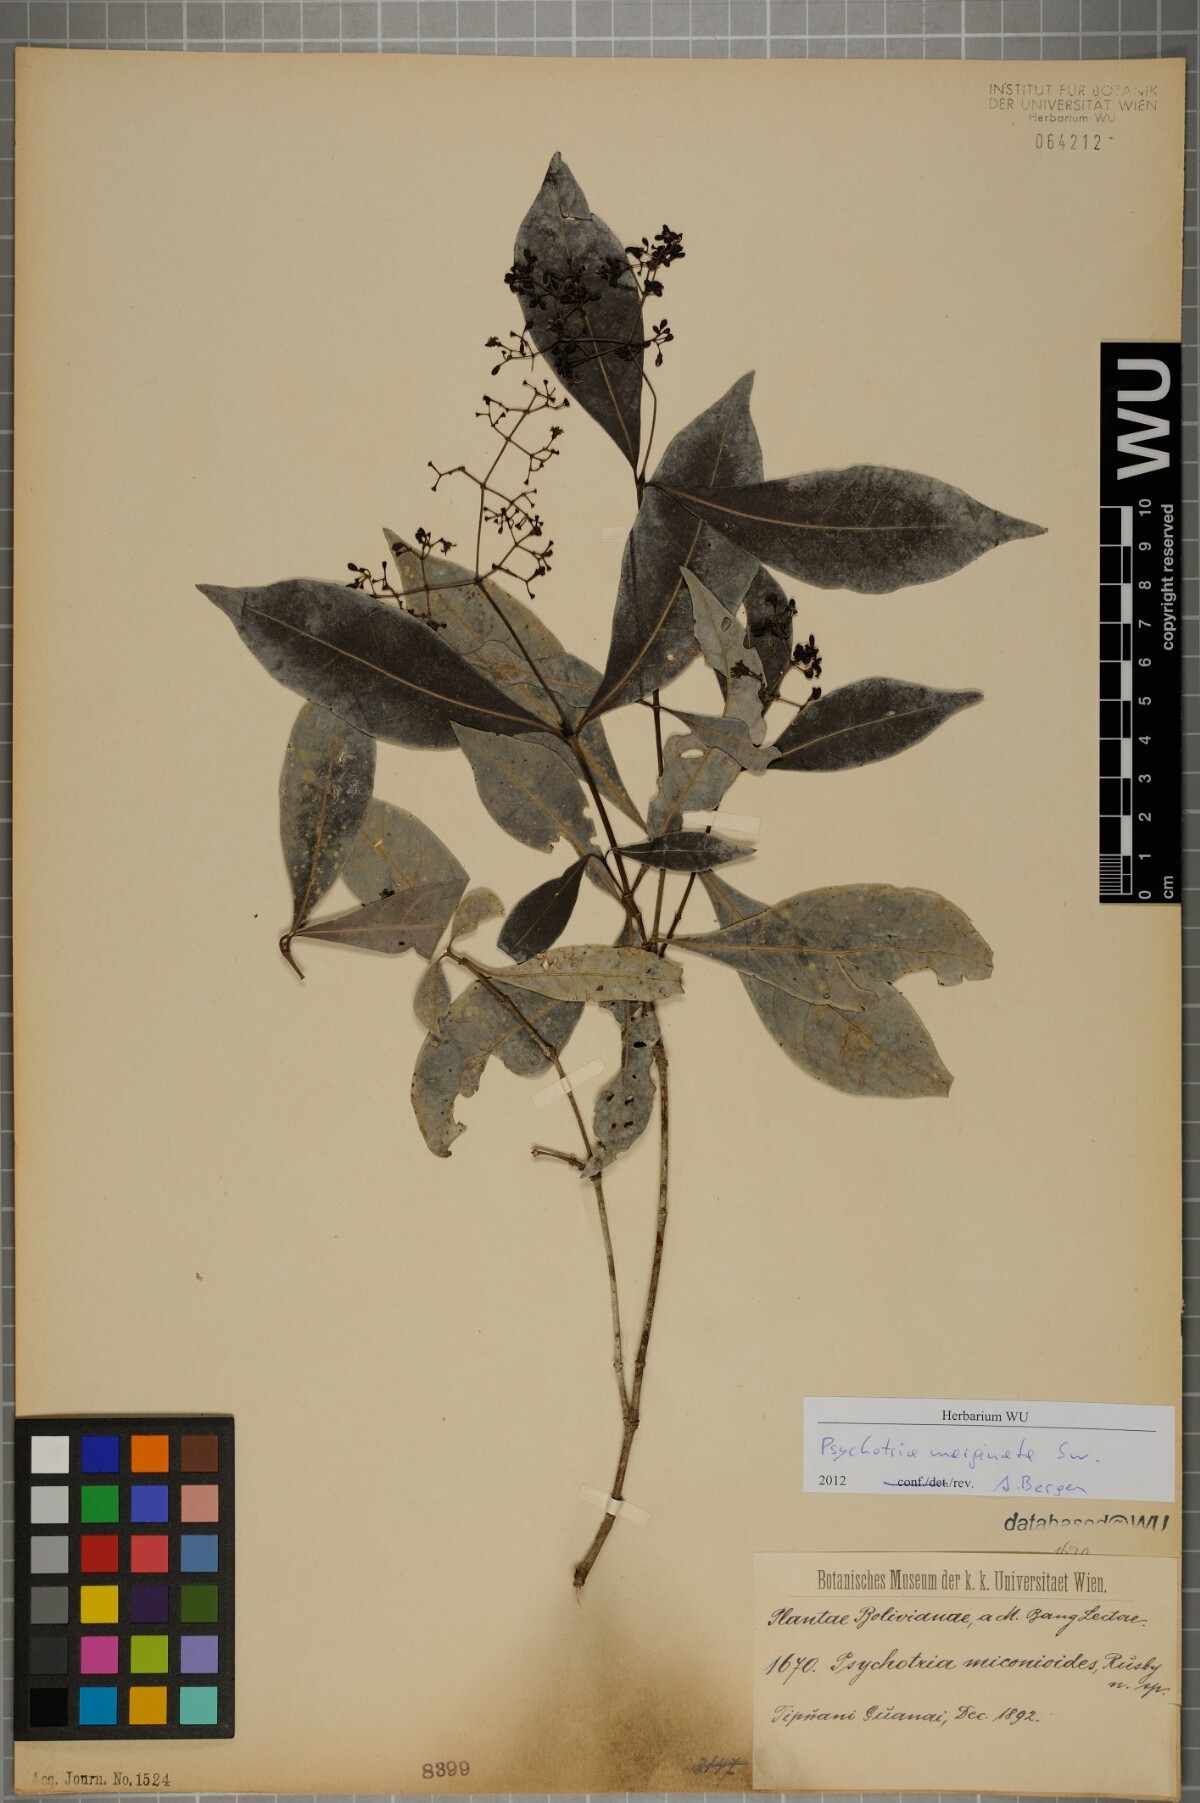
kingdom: Plantae
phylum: Tracheophyta
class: Magnoliopsida
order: Gentianales
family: Rubiaceae
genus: Psychotria
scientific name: Psychotria
